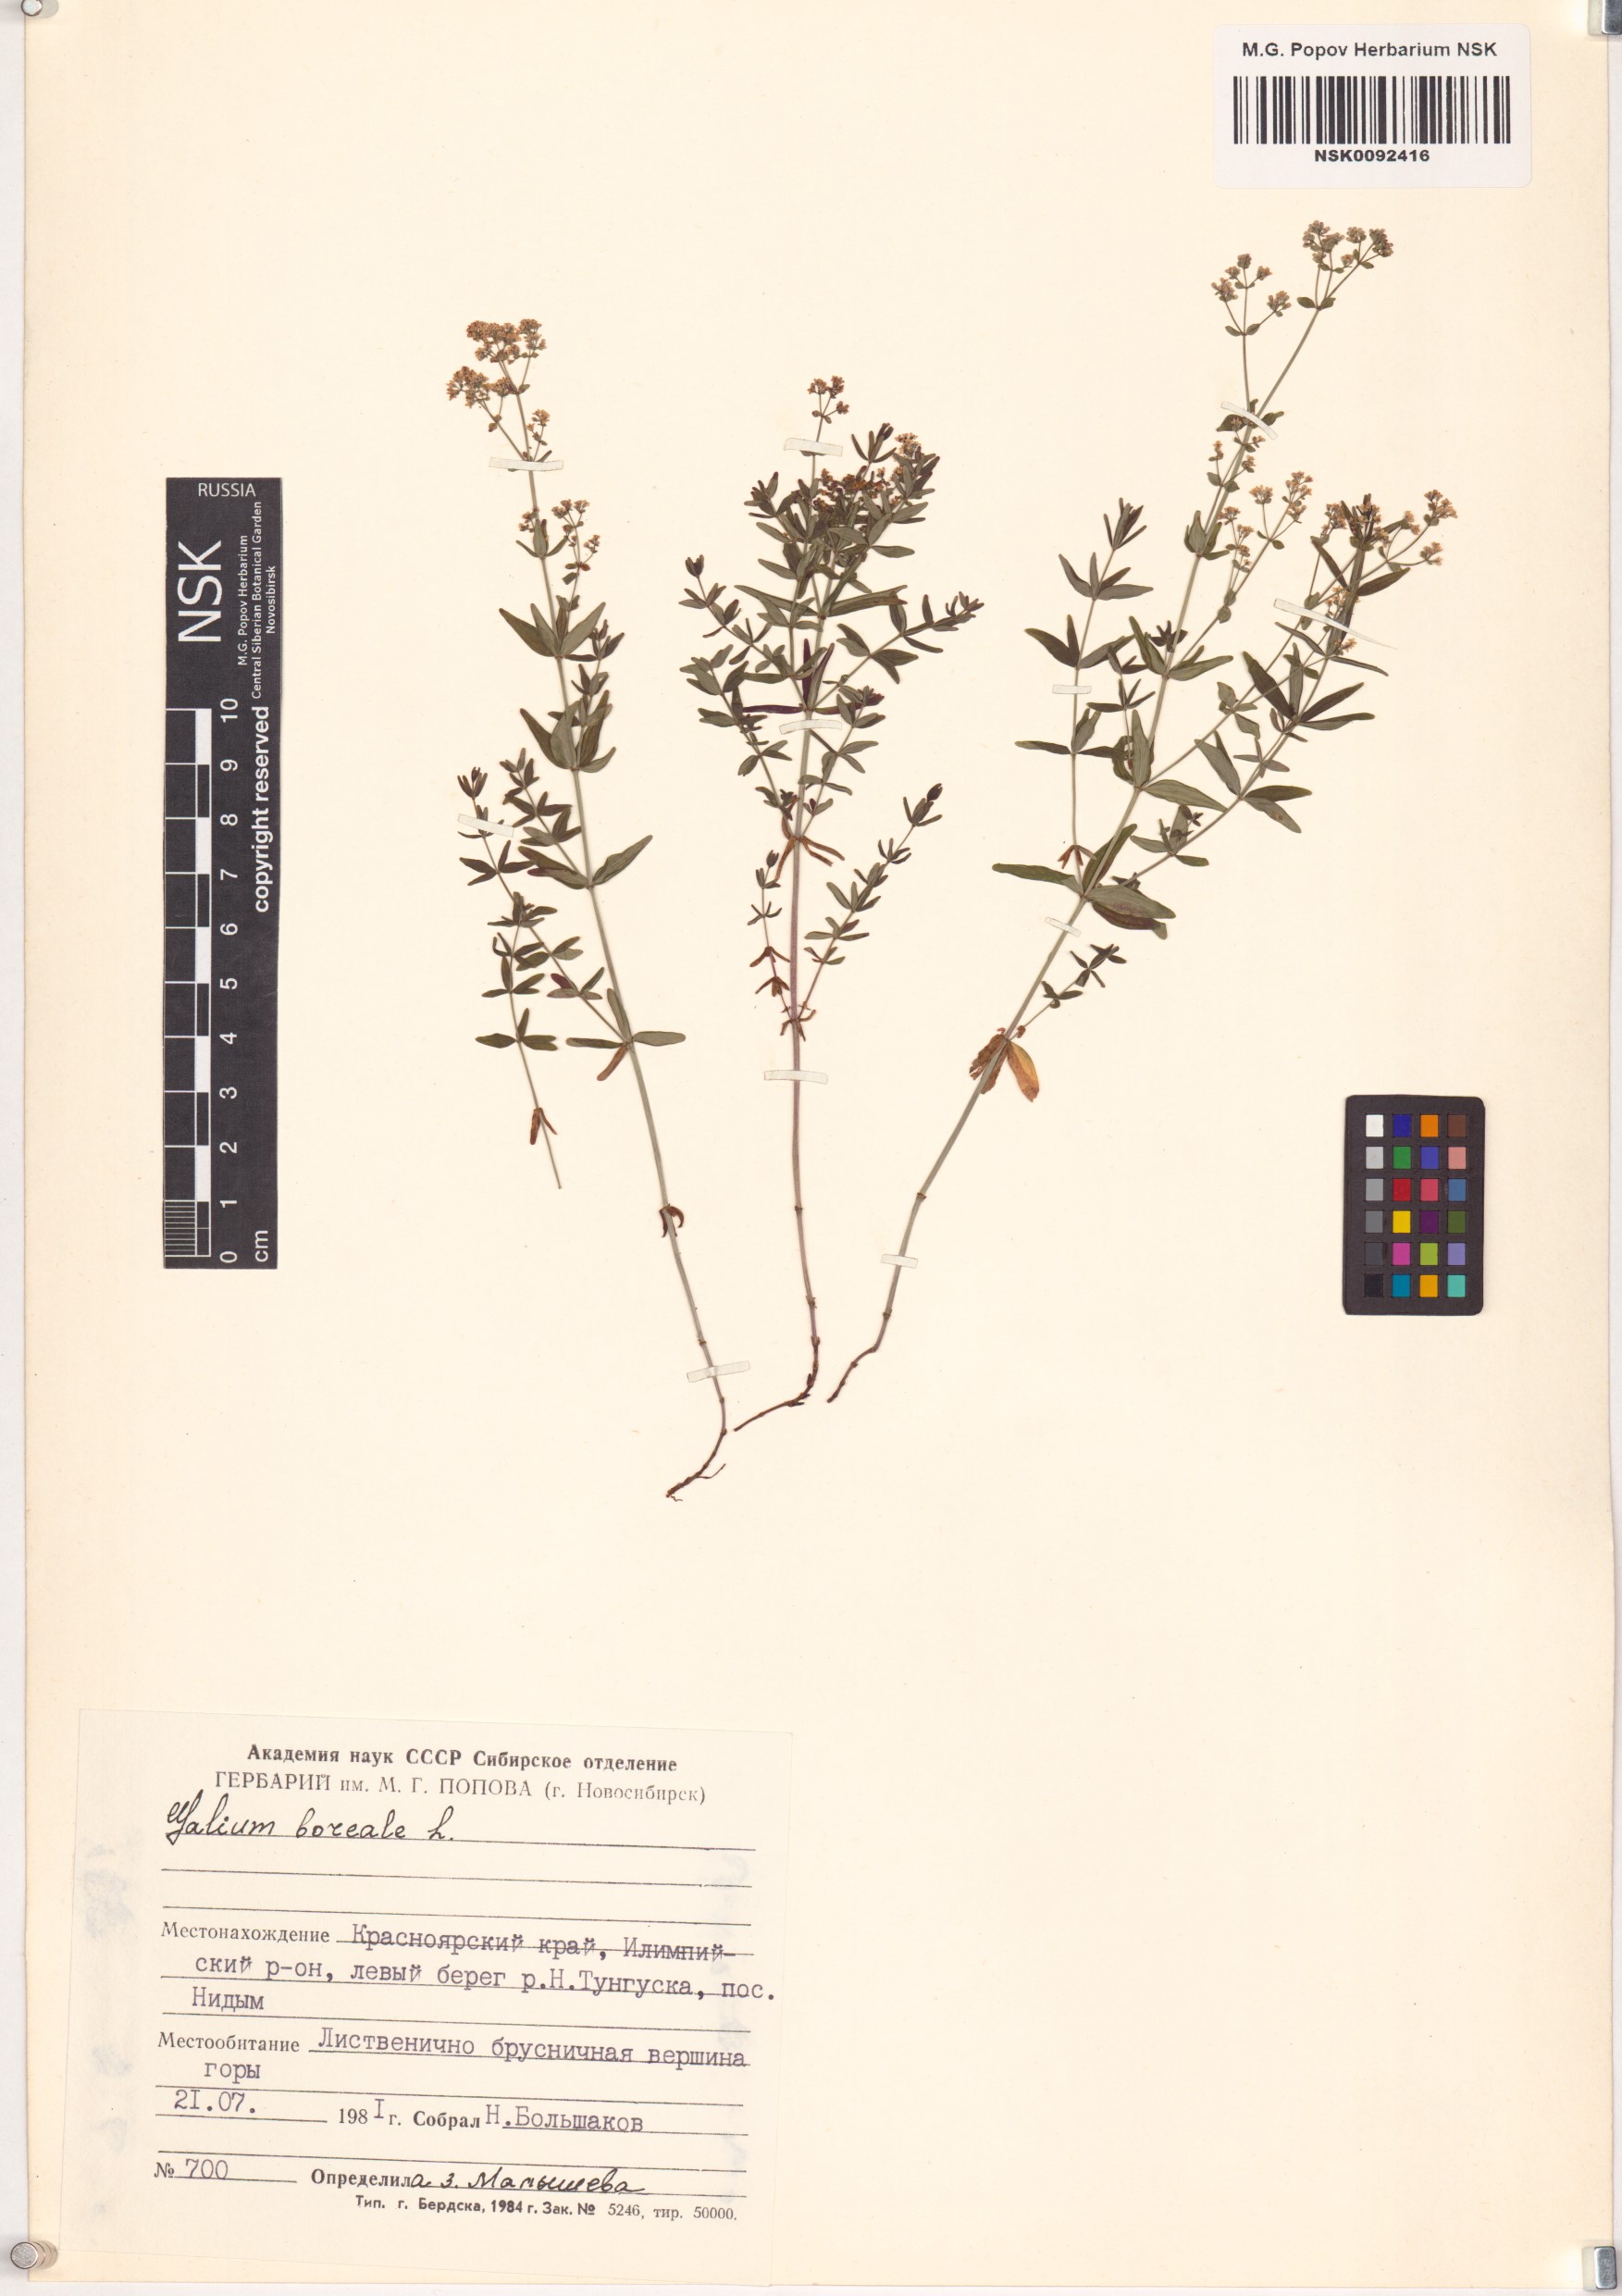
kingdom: Plantae
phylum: Tracheophyta
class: Magnoliopsida
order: Gentianales
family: Rubiaceae
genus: Galium
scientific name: Galium boreale
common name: Northern bedstraw
